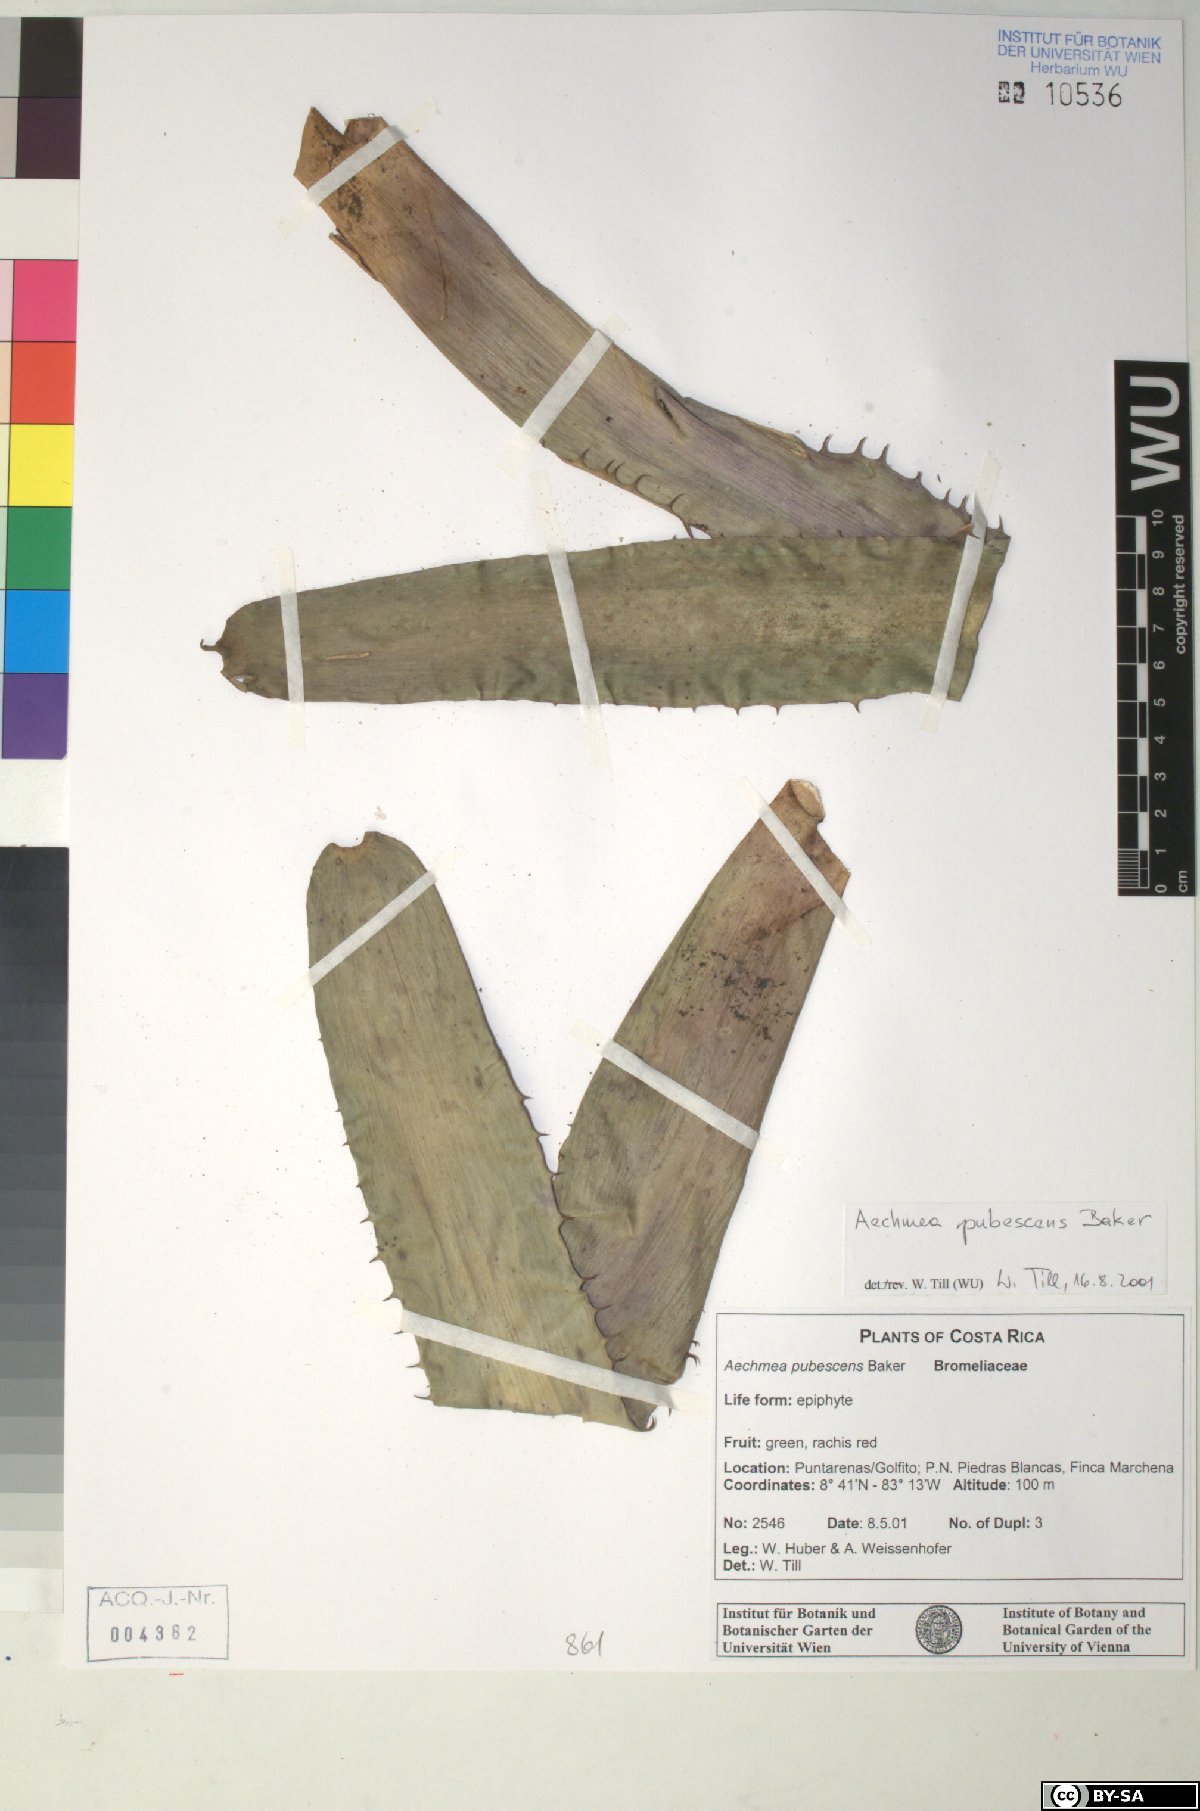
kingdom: Plantae
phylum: Tracheophyta
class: Liliopsida
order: Poales
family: Bromeliaceae
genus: Aechmea
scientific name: Aechmea pubescens
